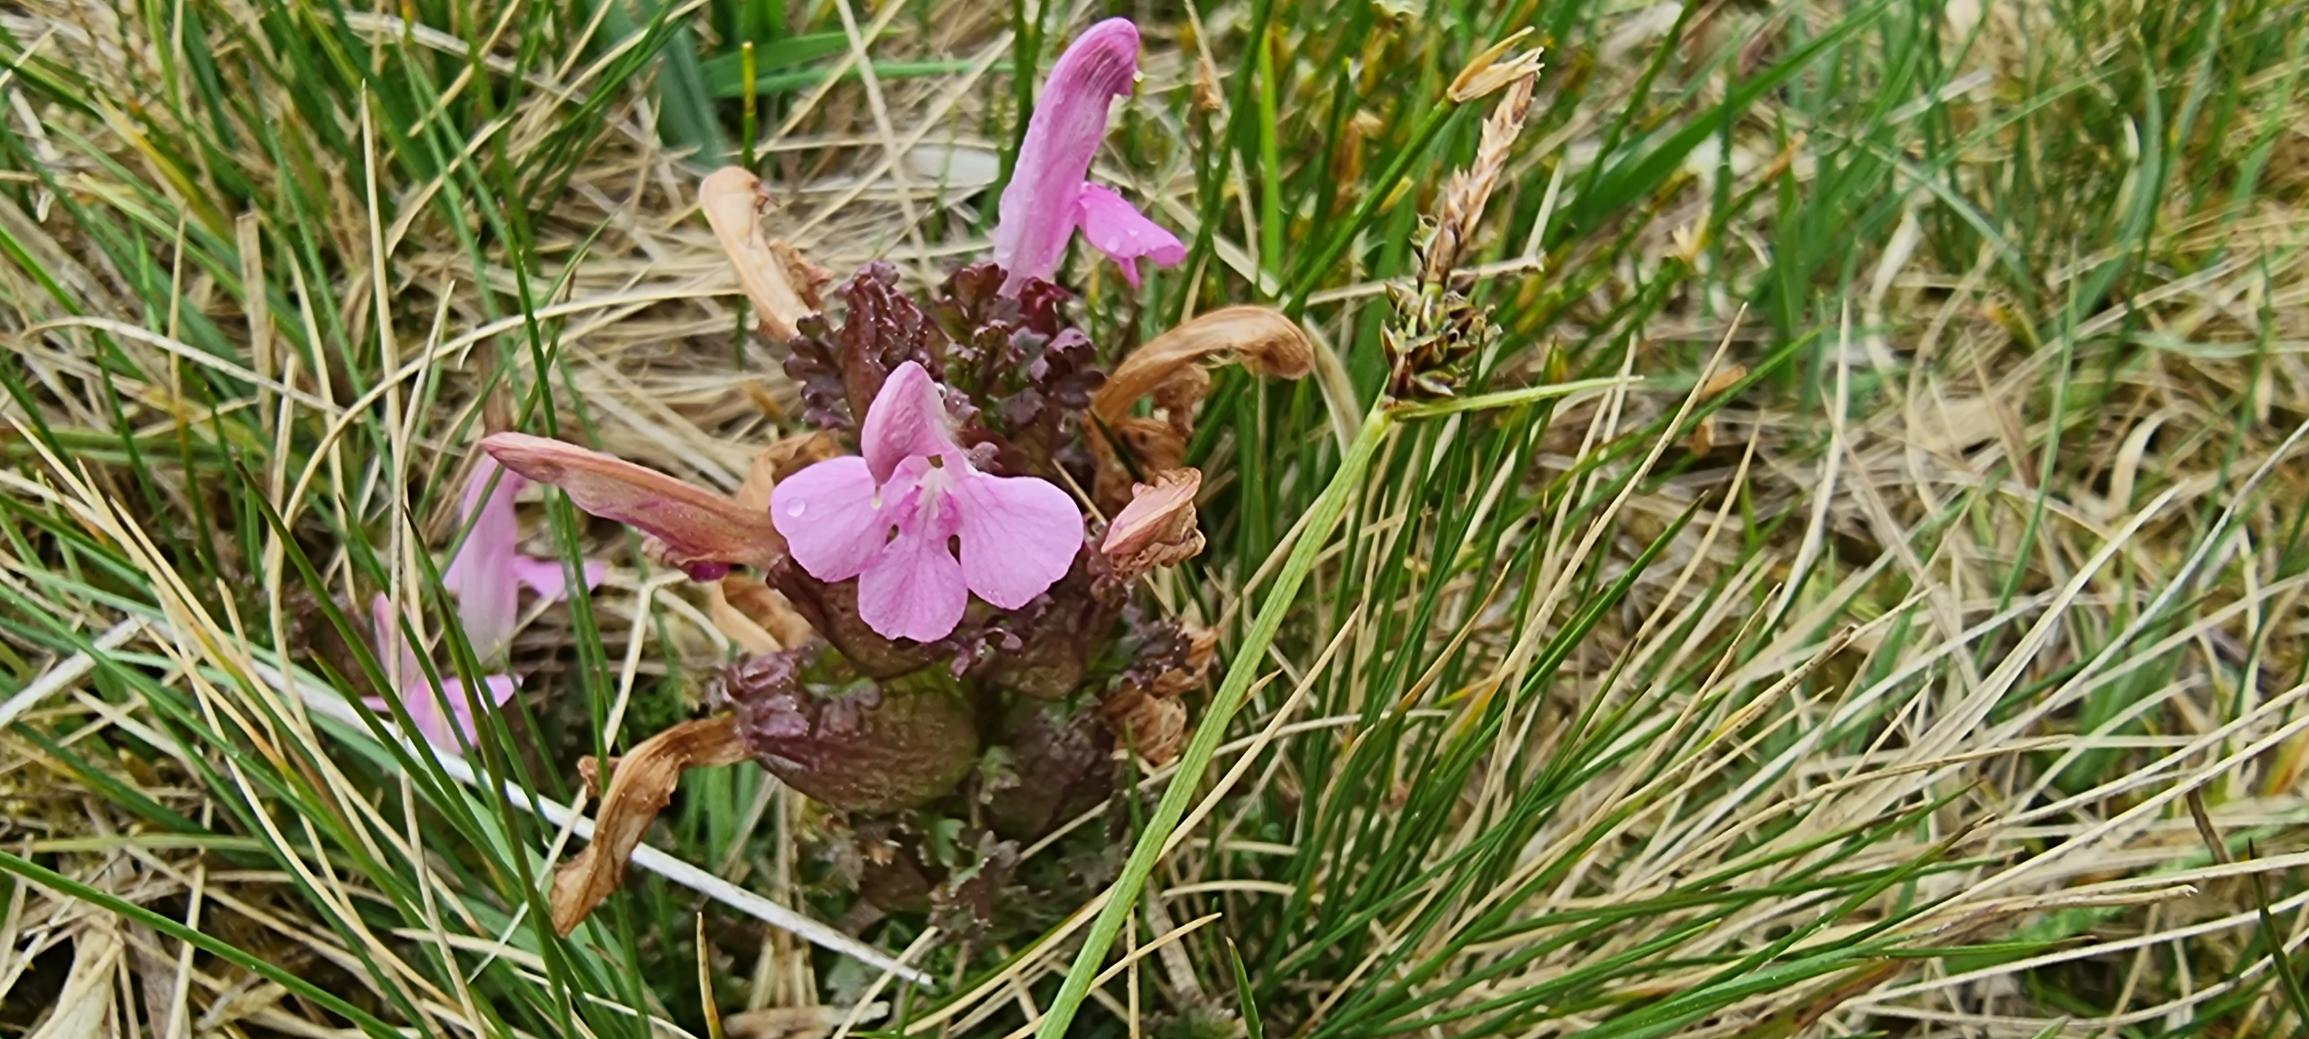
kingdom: Plantae
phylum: Tracheophyta
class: Magnoliopsida
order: Lamiales
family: Orobanchaceae
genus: Pedicularis
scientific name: Pedicularis sylvatica
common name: Mose-troldurt
